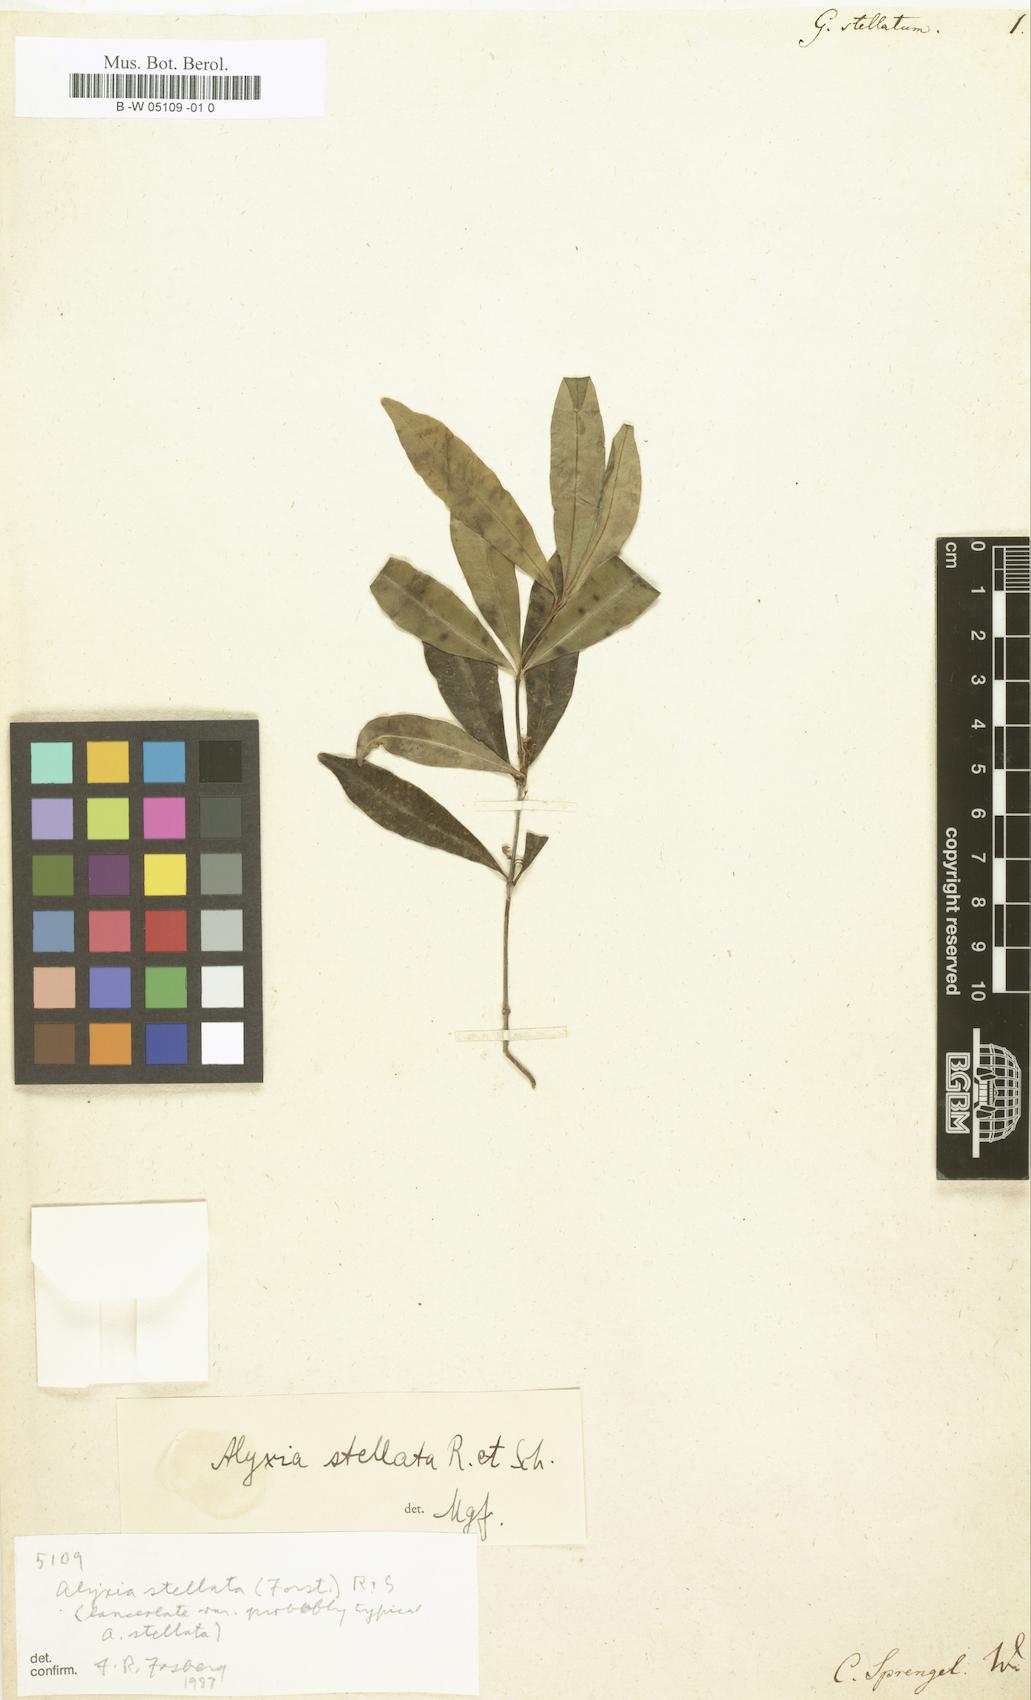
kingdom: Plantae
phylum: Tracheophyta
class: Magnoliopsida
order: Gentianales
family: Apocynaceae
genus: Alyxia
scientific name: Alyxia stellata
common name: Maile
